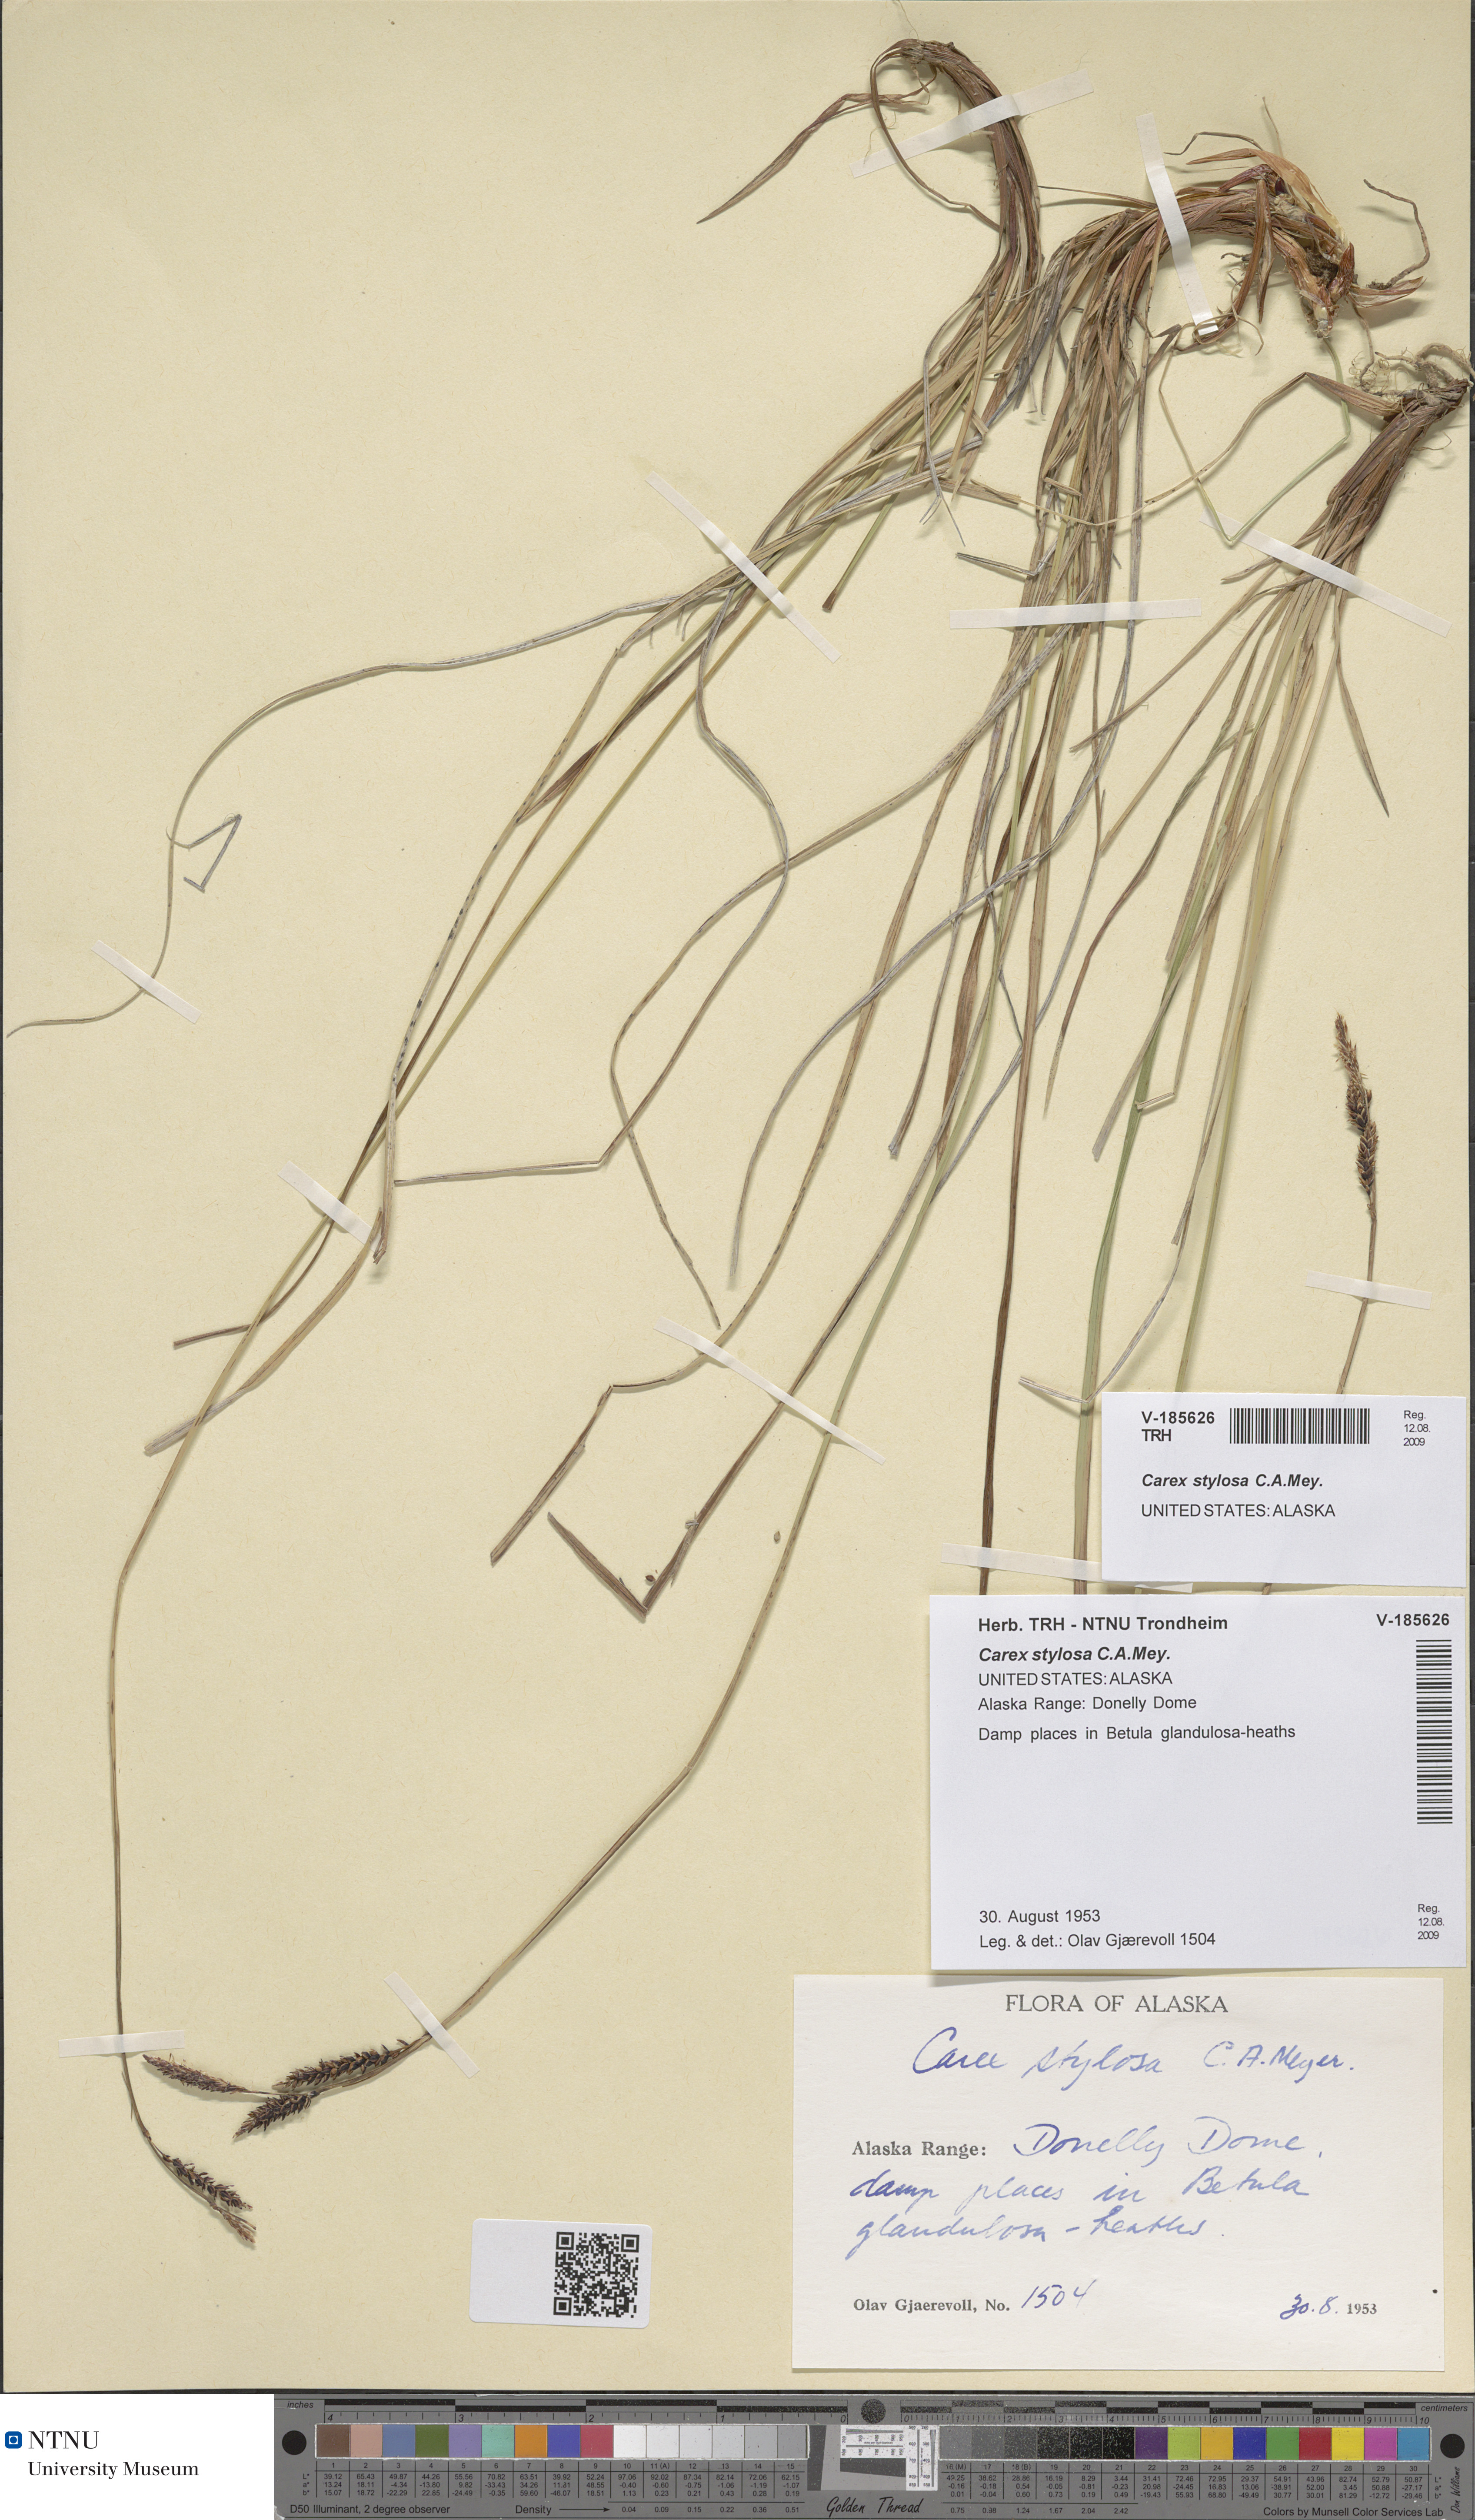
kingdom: Plantae
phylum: Tracheophyta
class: Liliopsida
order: Poales
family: Cyperaceae
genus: Carex
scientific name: Carex stylosa
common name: Long-styled sedge
